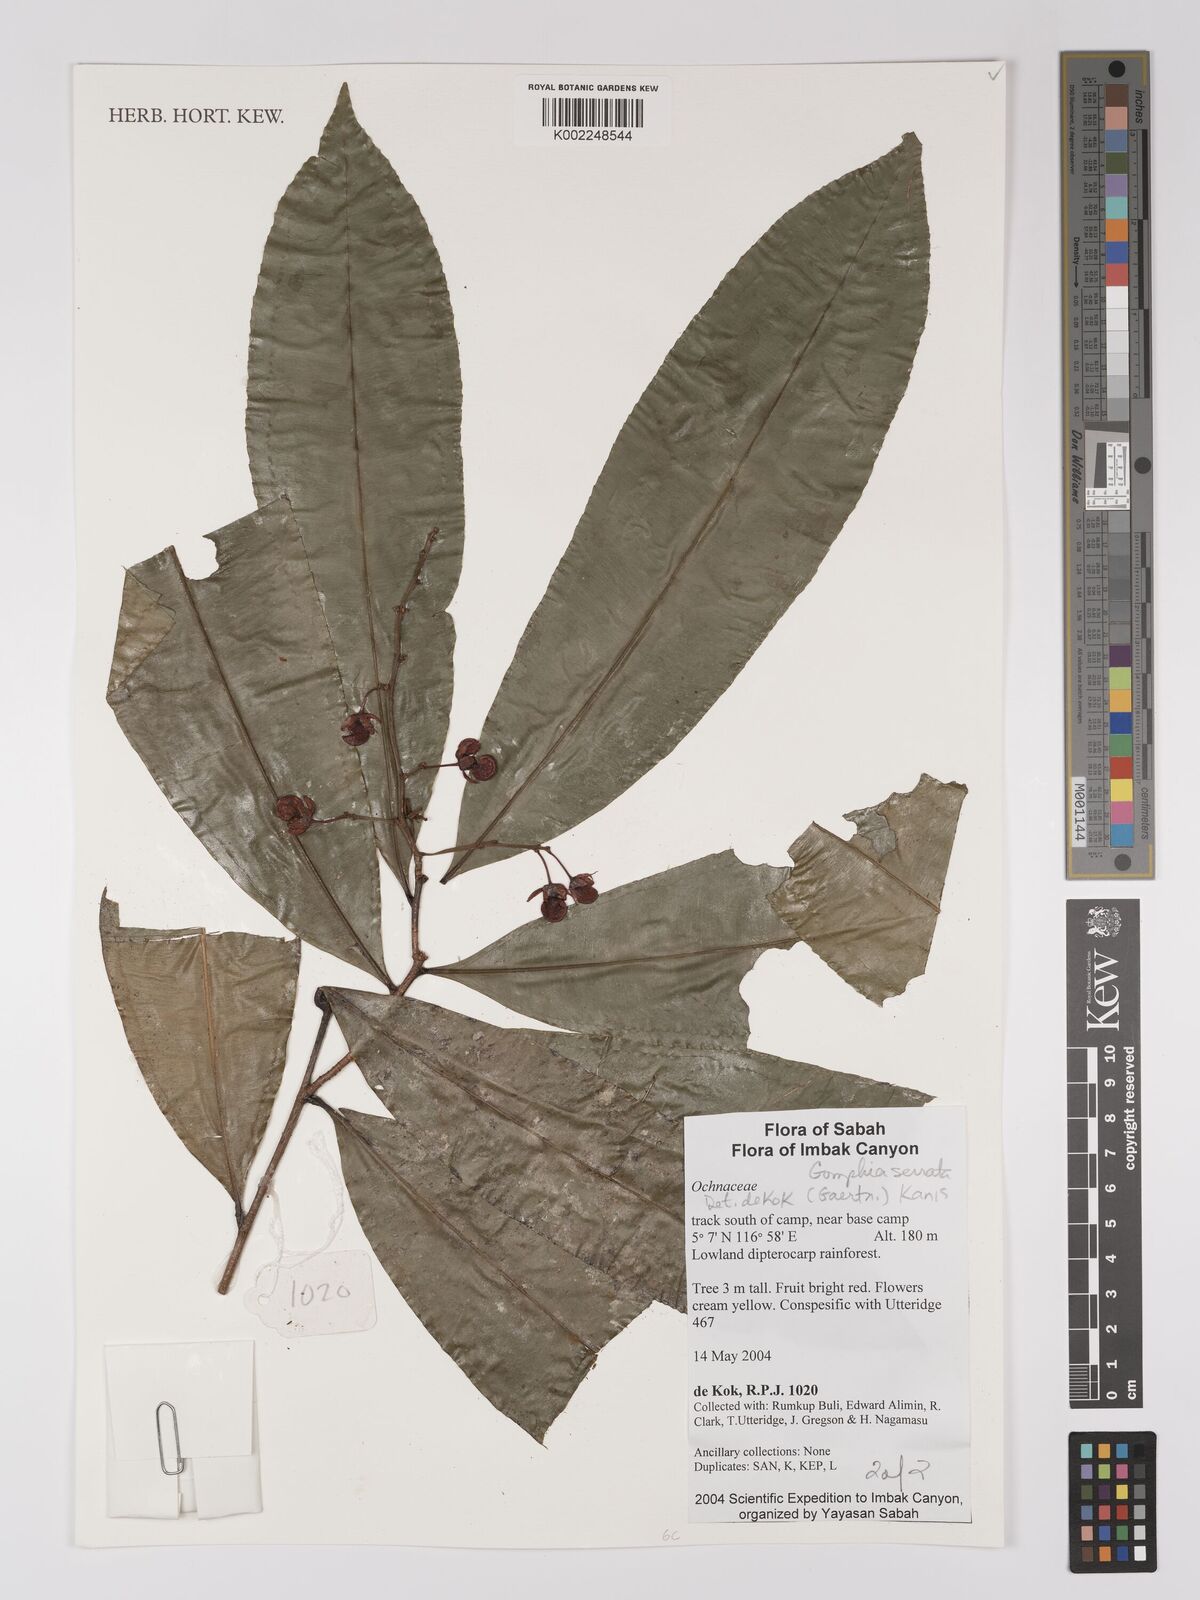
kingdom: Plantae
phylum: Tracheophyta
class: Magnoliopsida
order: Malpighiales
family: Ochnaceae
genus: Gomphia
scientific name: Gomphia serrata
